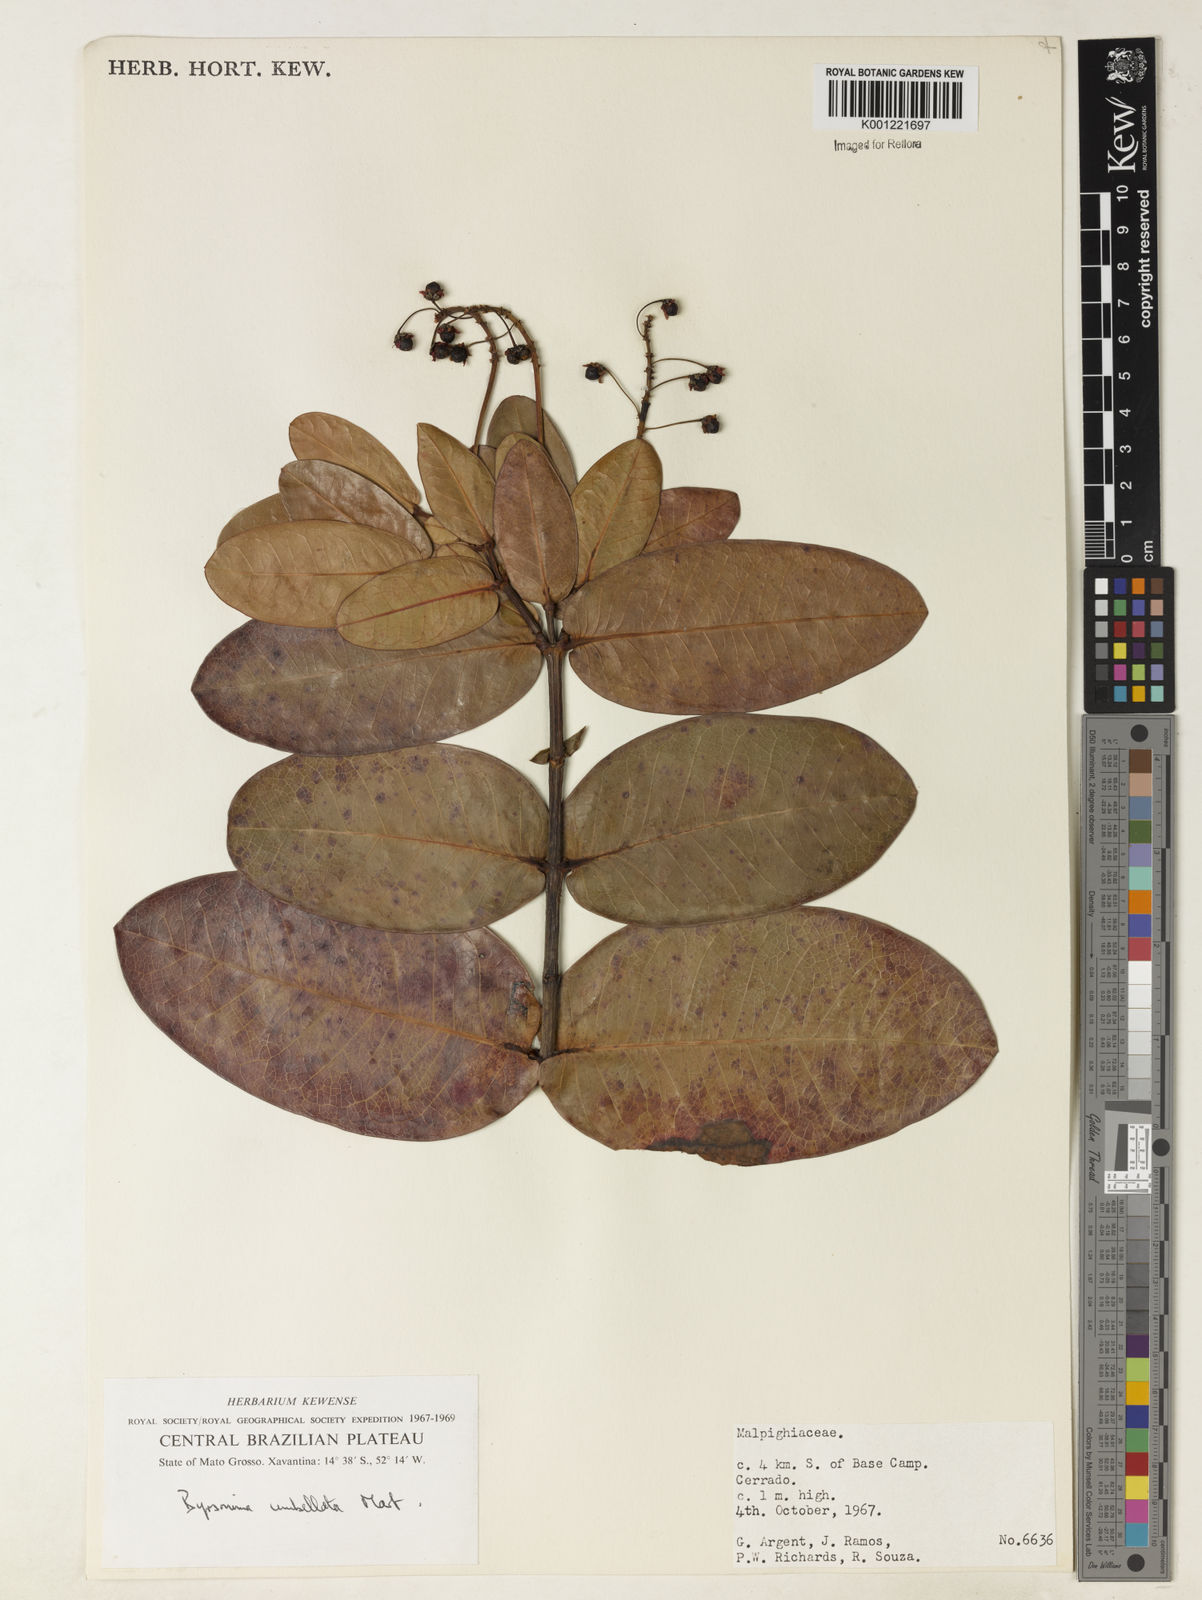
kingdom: Plantae
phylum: Tracheophyta
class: Magnoliopsida
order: Malpighiales
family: Malpighiaceae
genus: Byrsonima
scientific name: Byrsonima umbellata
